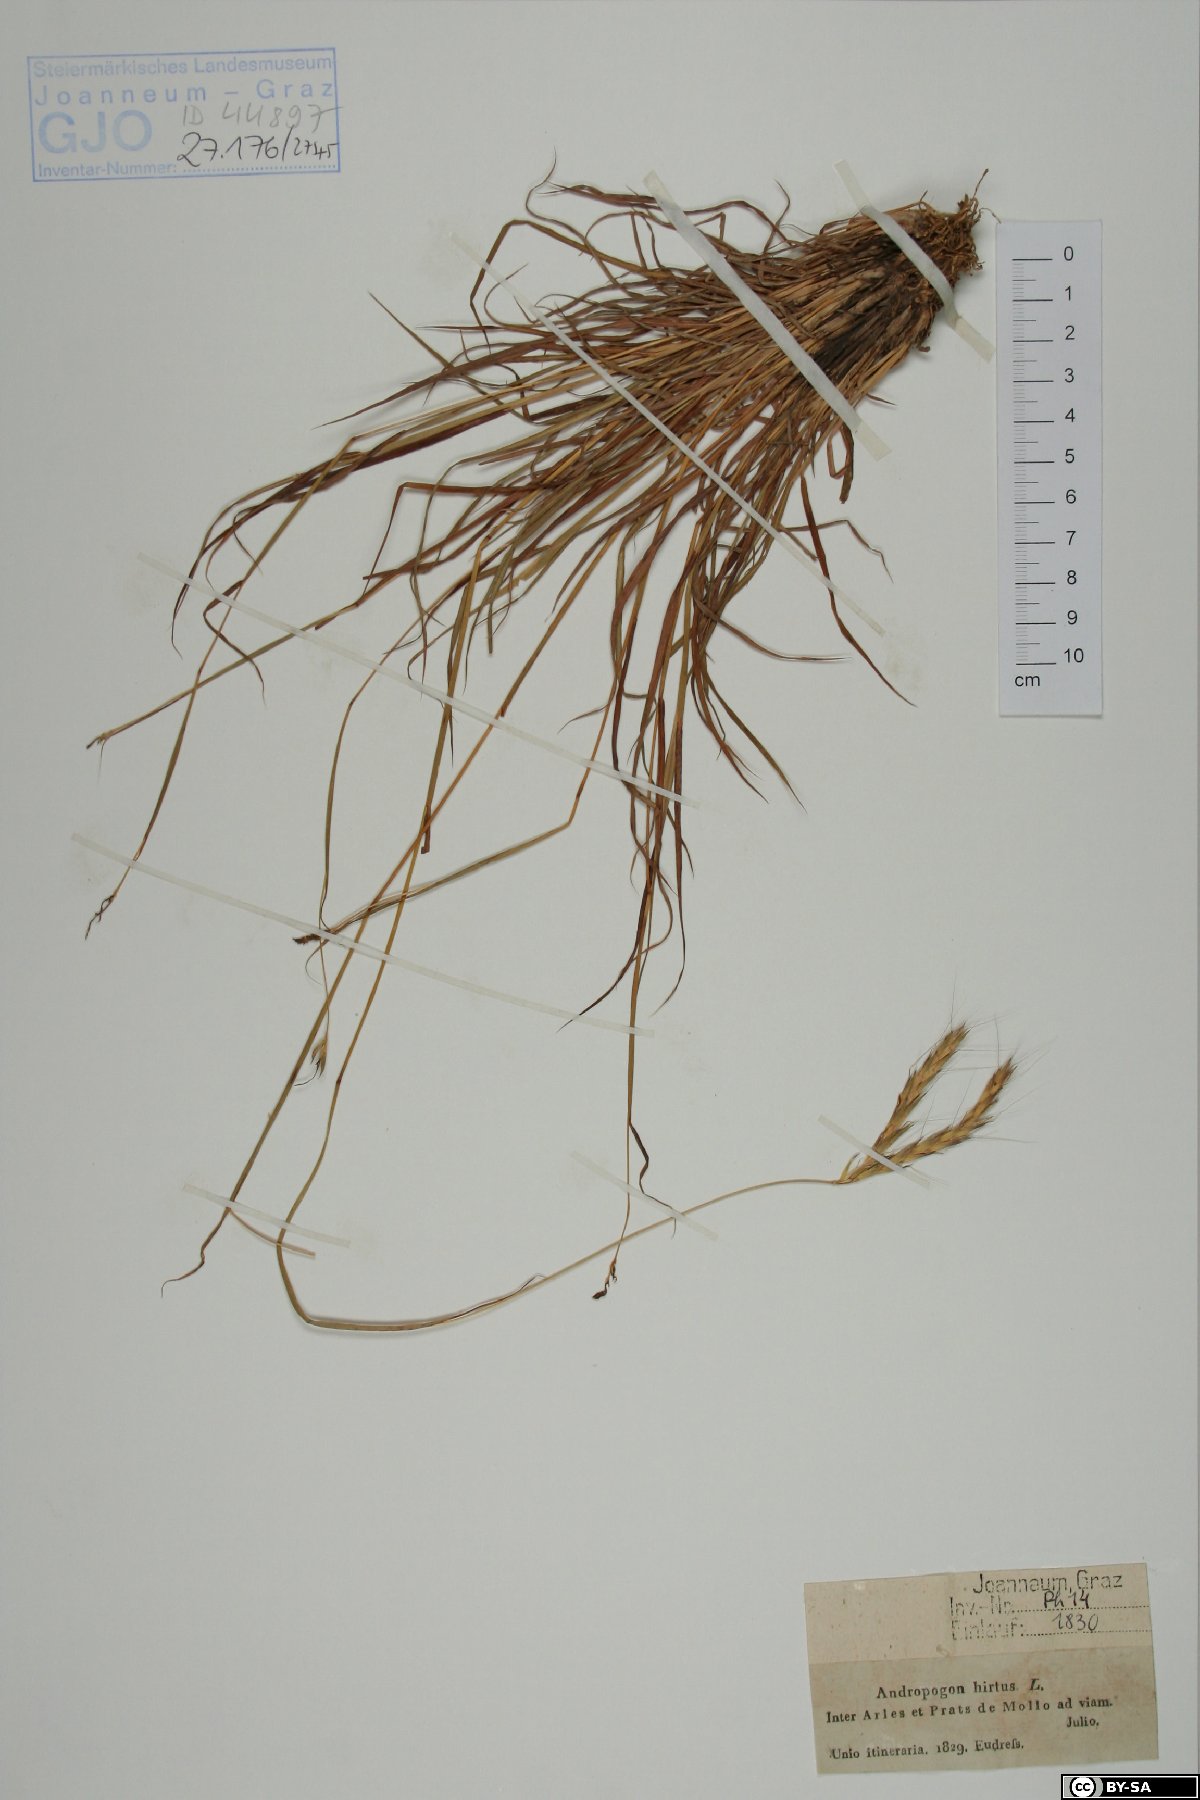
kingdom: Plantae
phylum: Tracheophyta
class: Liliopsida
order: Poales
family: Poaceae
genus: Hyparrhenia
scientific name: Hyparrhenia hirta
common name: Thatching grass
